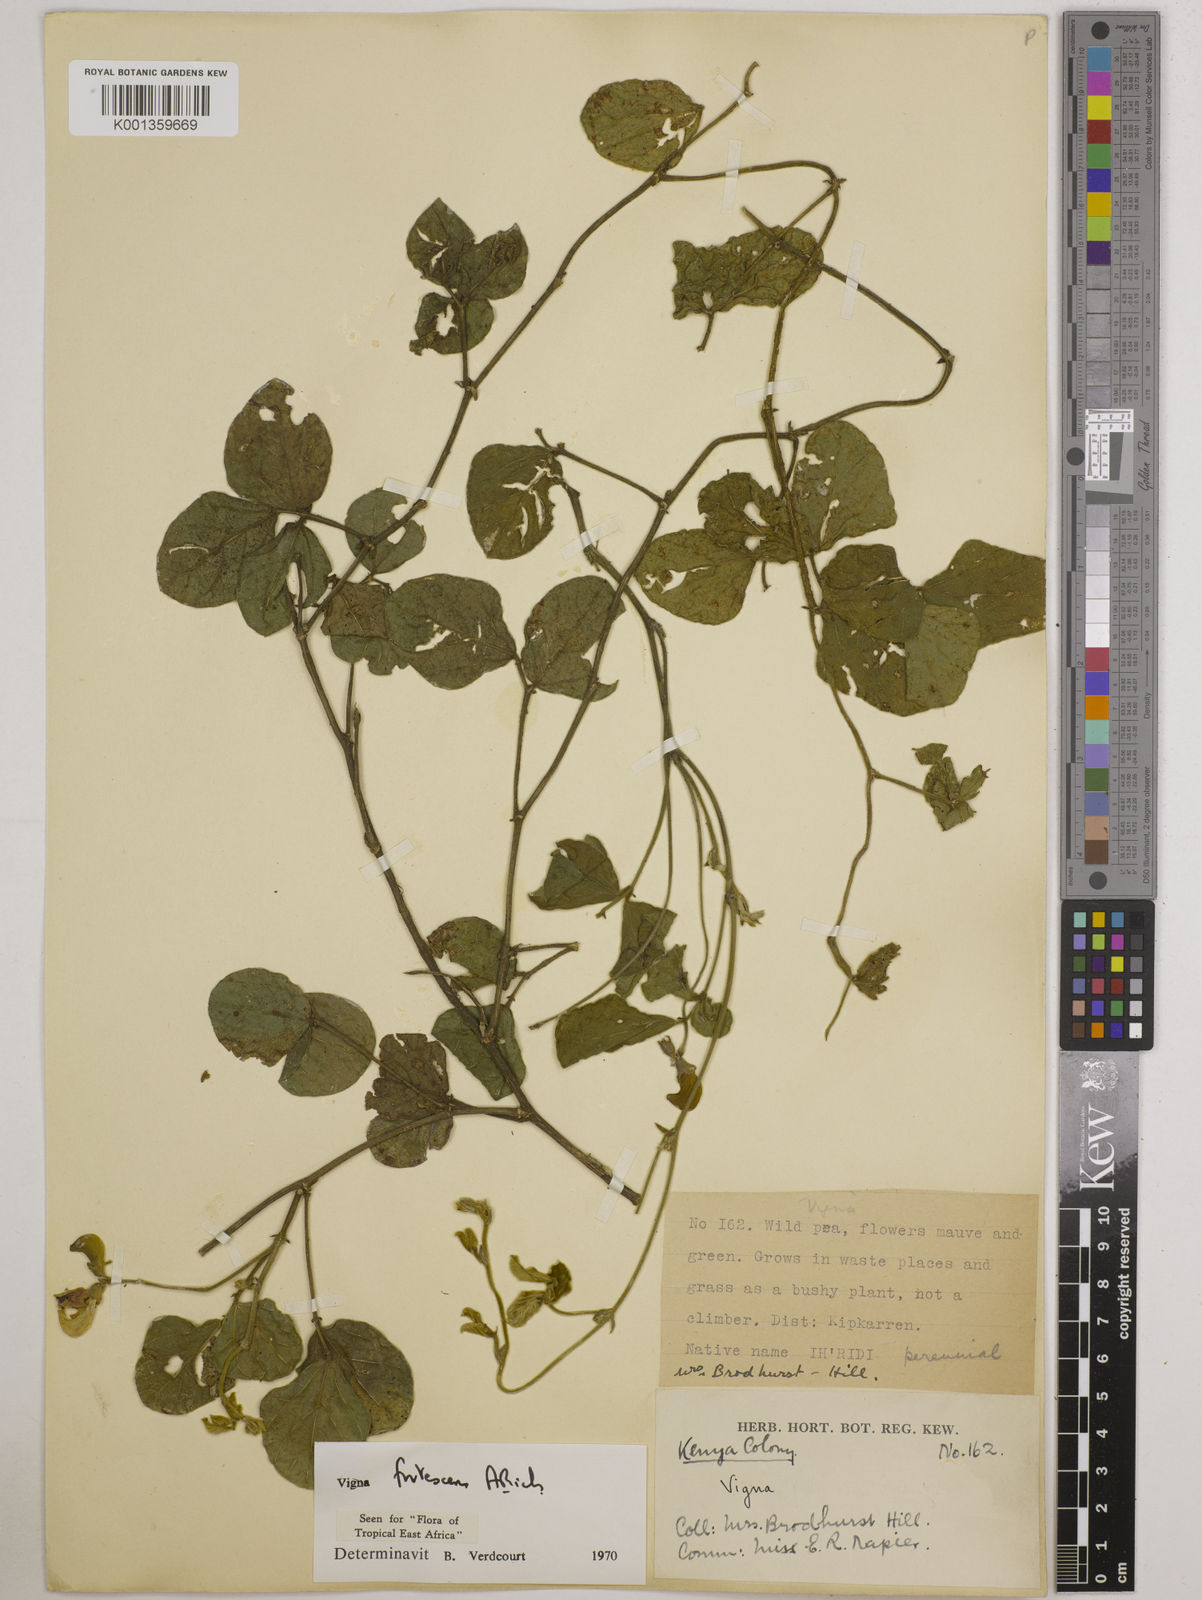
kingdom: Plantae
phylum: Tracheophyta
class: Magnoliopsida
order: Fabales
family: Fabaceae
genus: Vigna
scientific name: Vigna frutescens
